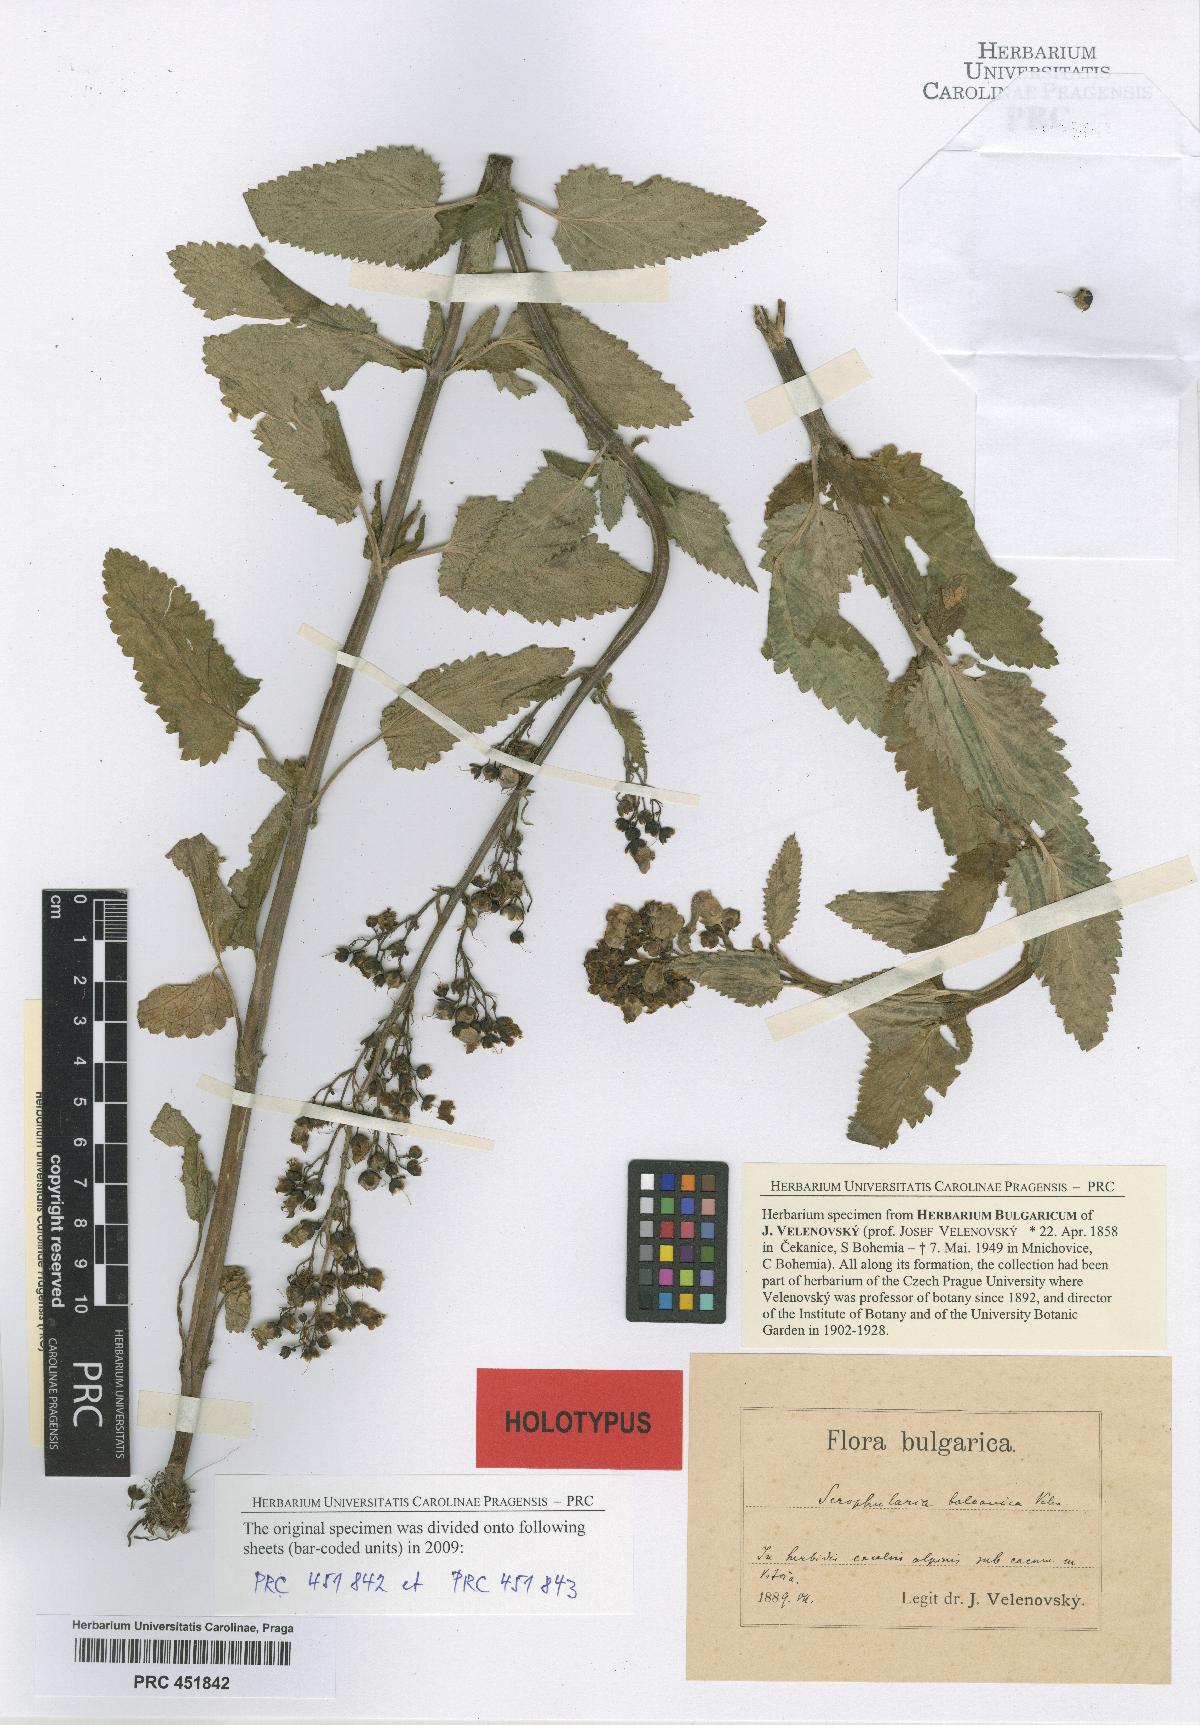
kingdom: Plantae
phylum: Tracheophyta
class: Magnoliopsida
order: Lamiales
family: Scrophulariaceae
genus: Scrophularia
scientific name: Scrophularia scopolii
